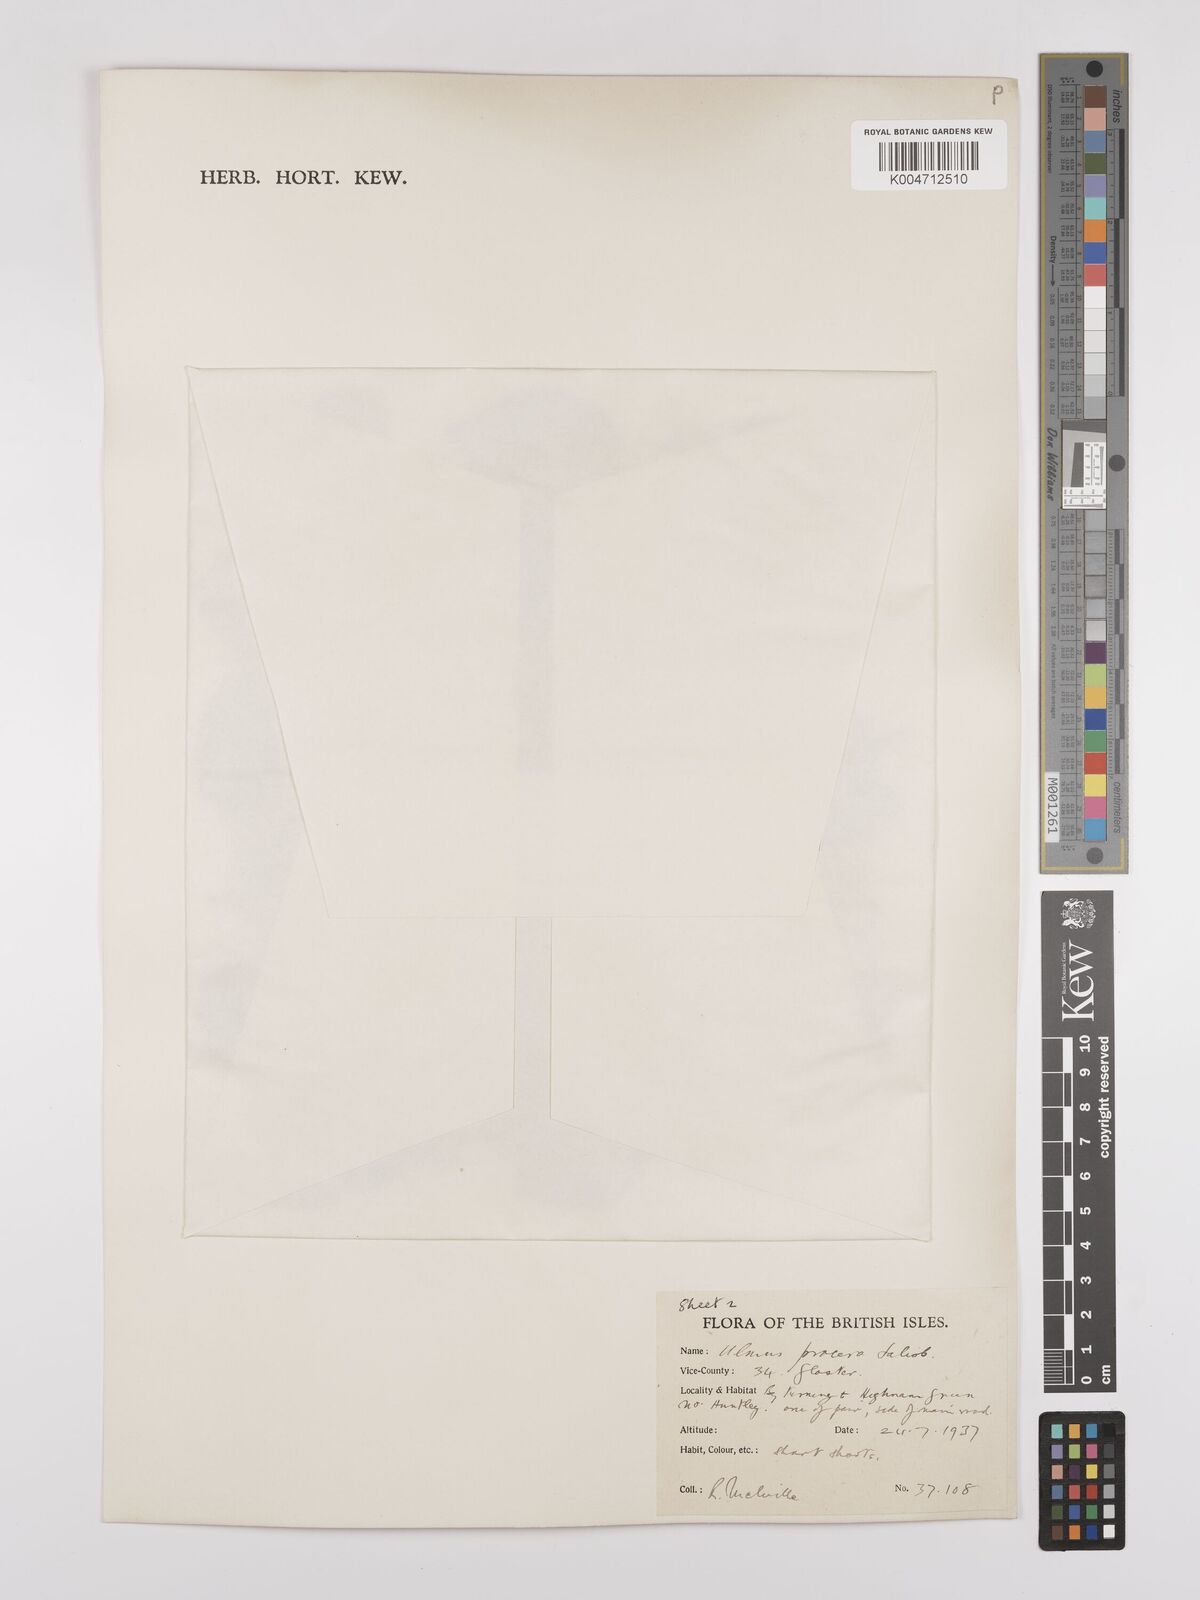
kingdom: Plantae
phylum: Tracheophyta
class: Magnoliopsida
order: Rosales
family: Ulmaceae
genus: Ulmus
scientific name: Ulmus minor
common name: Small-leaved elm
